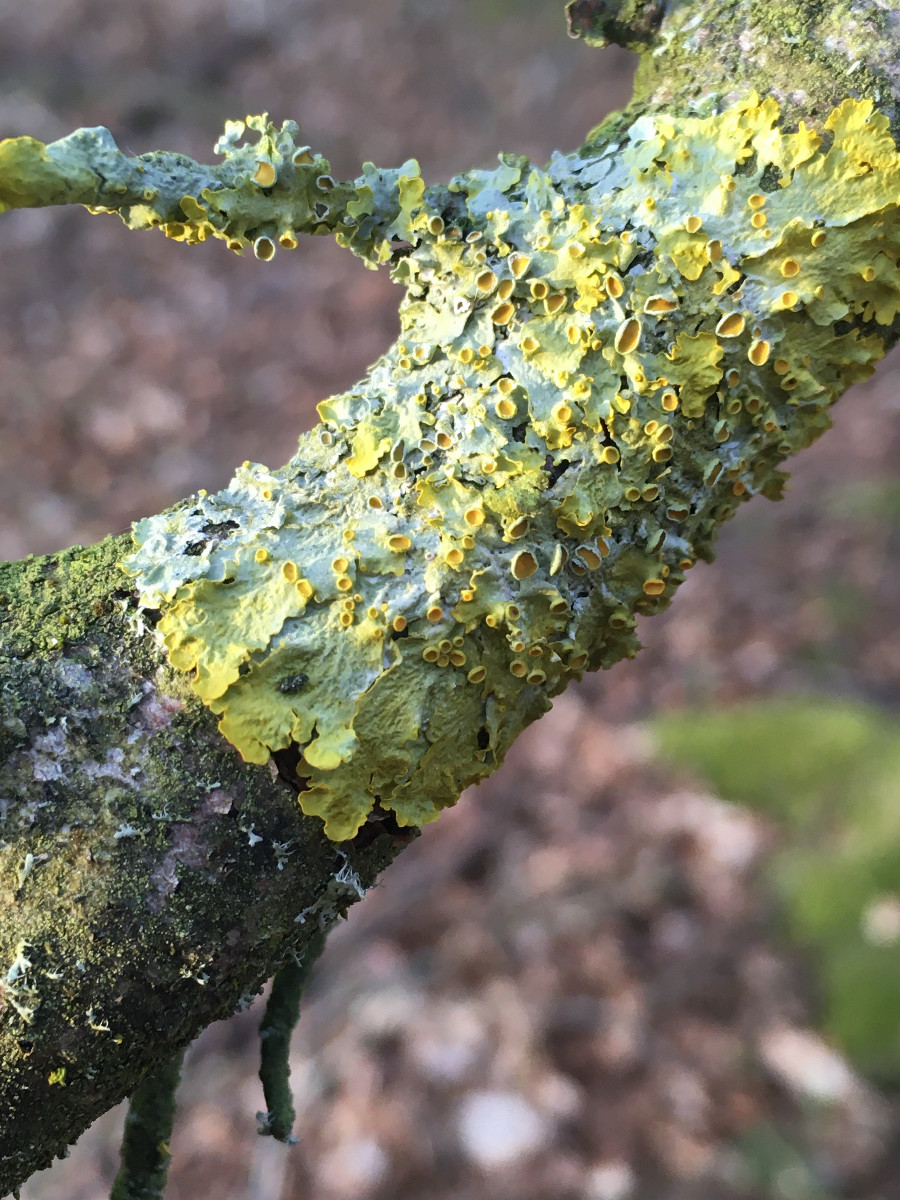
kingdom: Fungi
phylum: Ascomycota
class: Lecanoromycetes
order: Teloschistales
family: Teloschistaceae
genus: Xanthoria
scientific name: Xanthoria parietina
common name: almindelig væggelav
